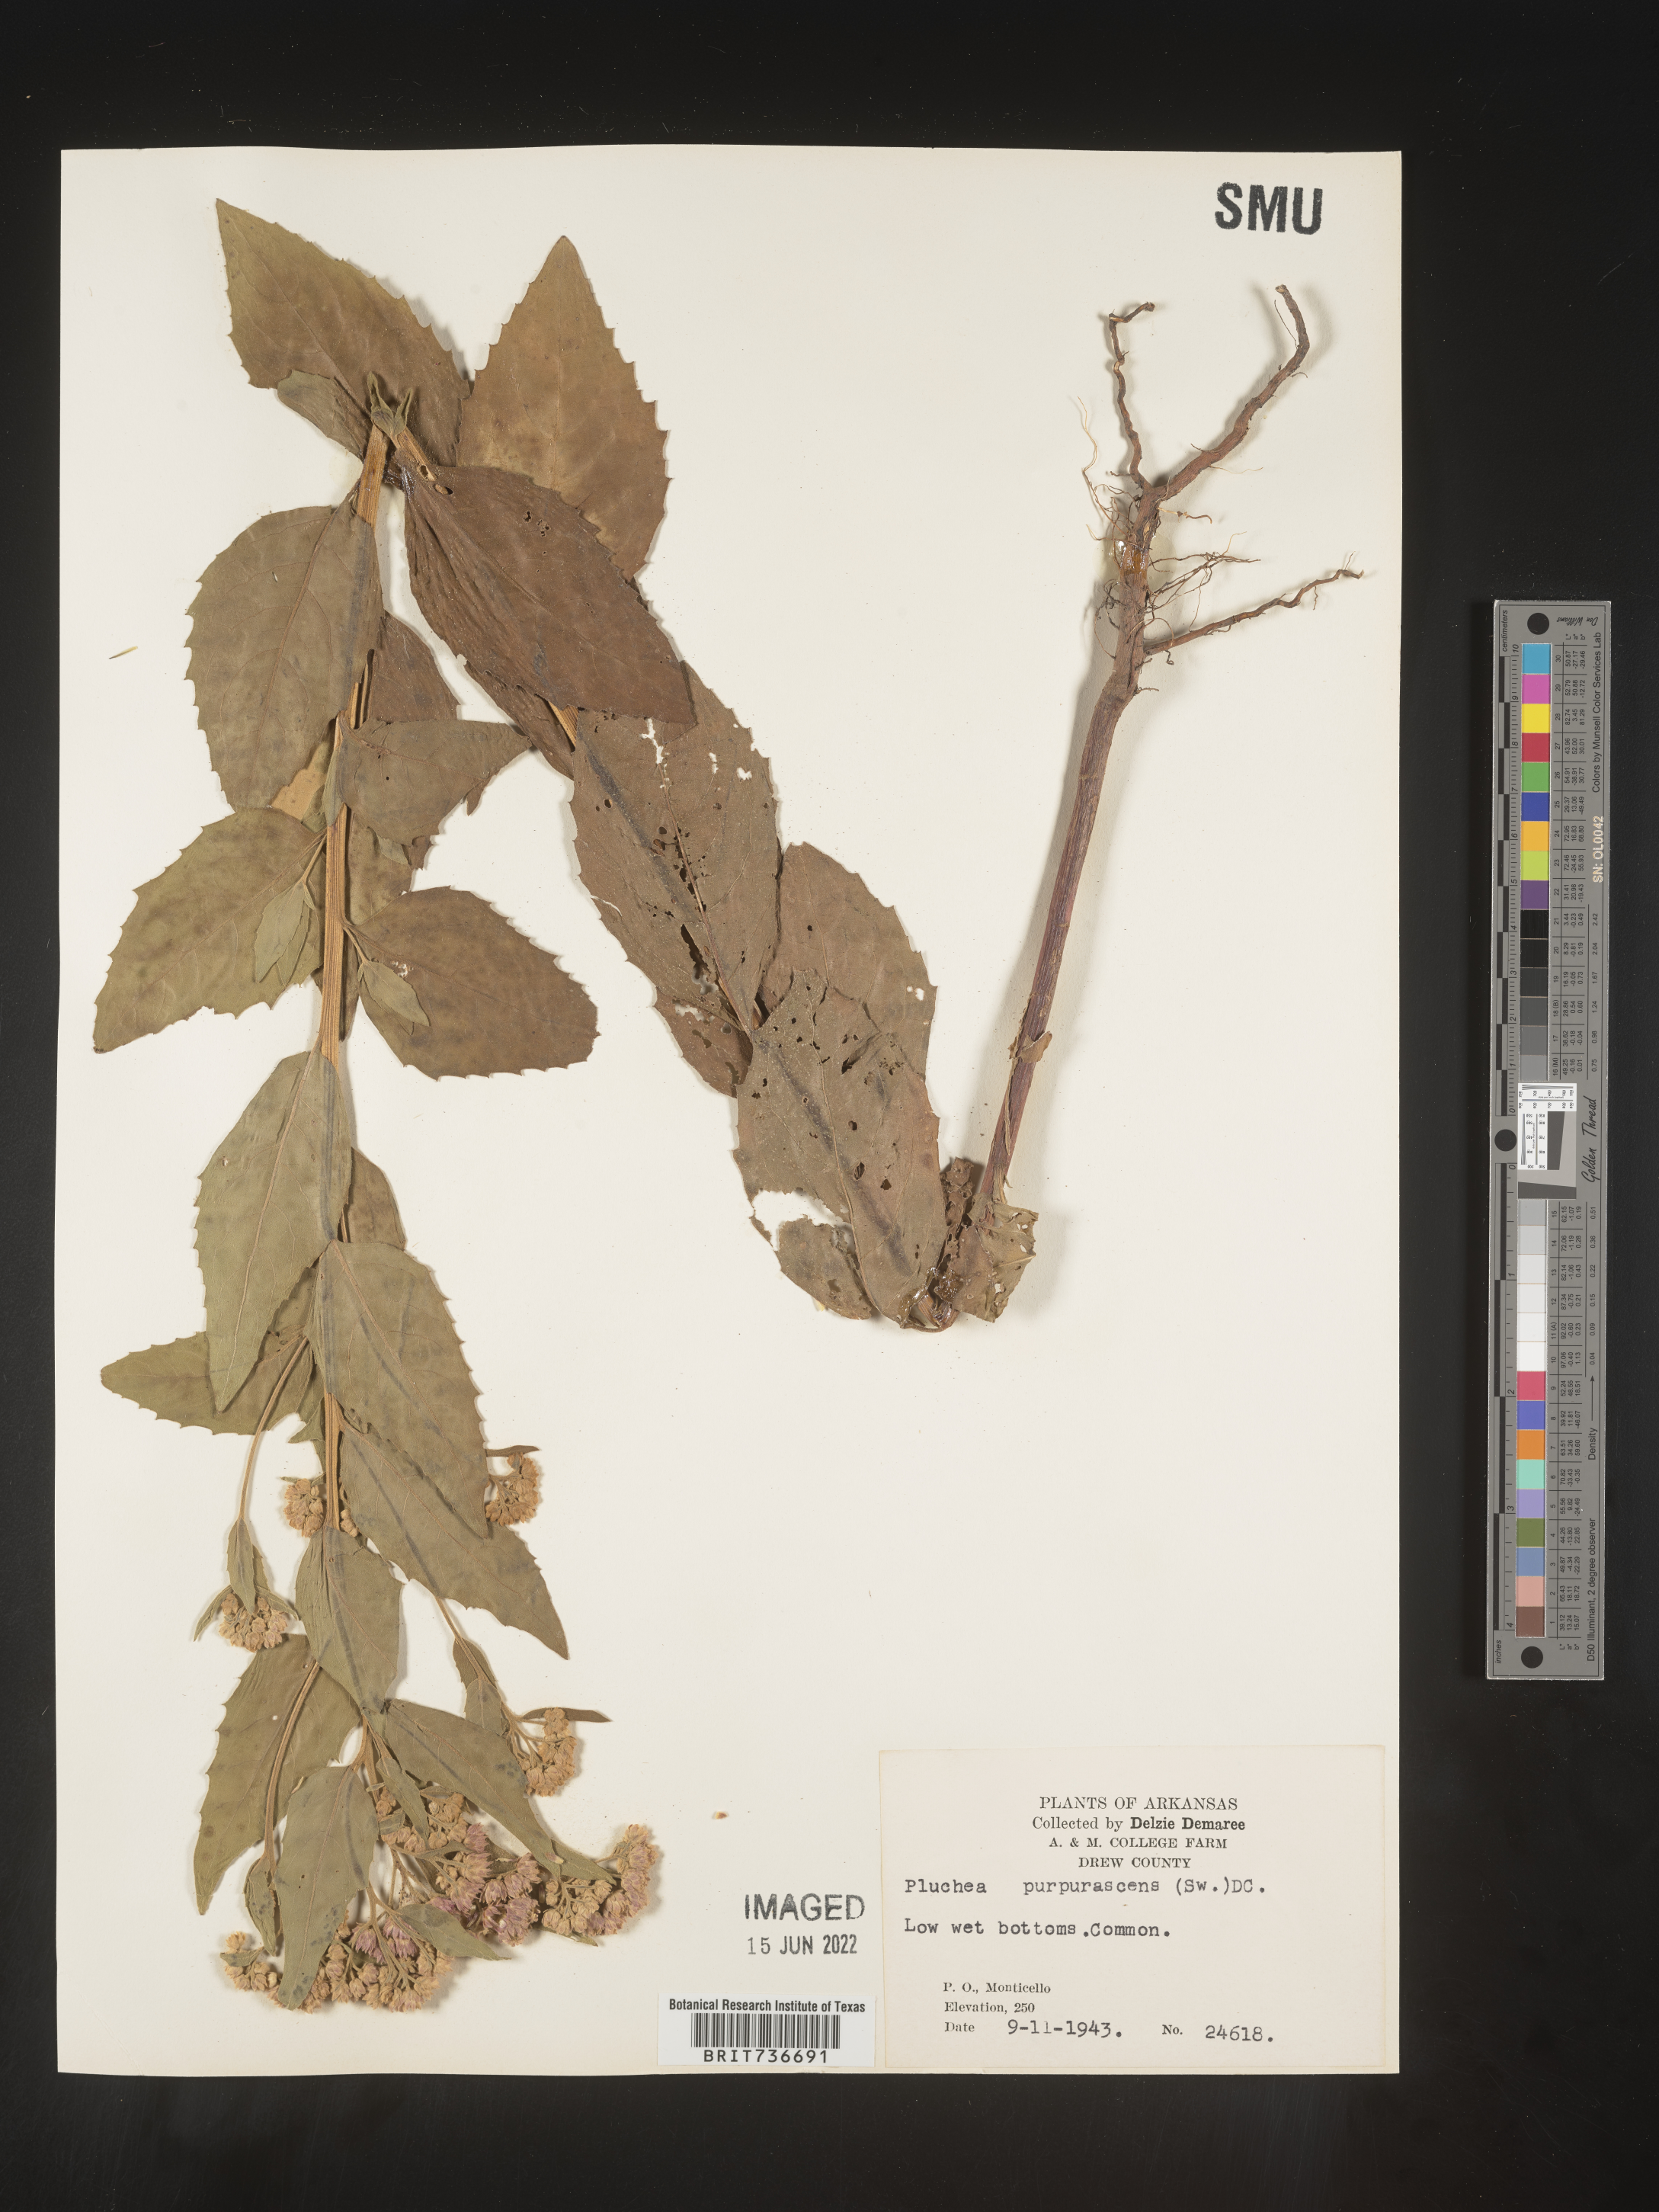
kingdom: Plantae
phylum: Tracheophyta
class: Magnoliopsida
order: Asterales
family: Asteraceae
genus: Pluchea
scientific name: Pluchea odorata
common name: Saltmarsh fleabane
